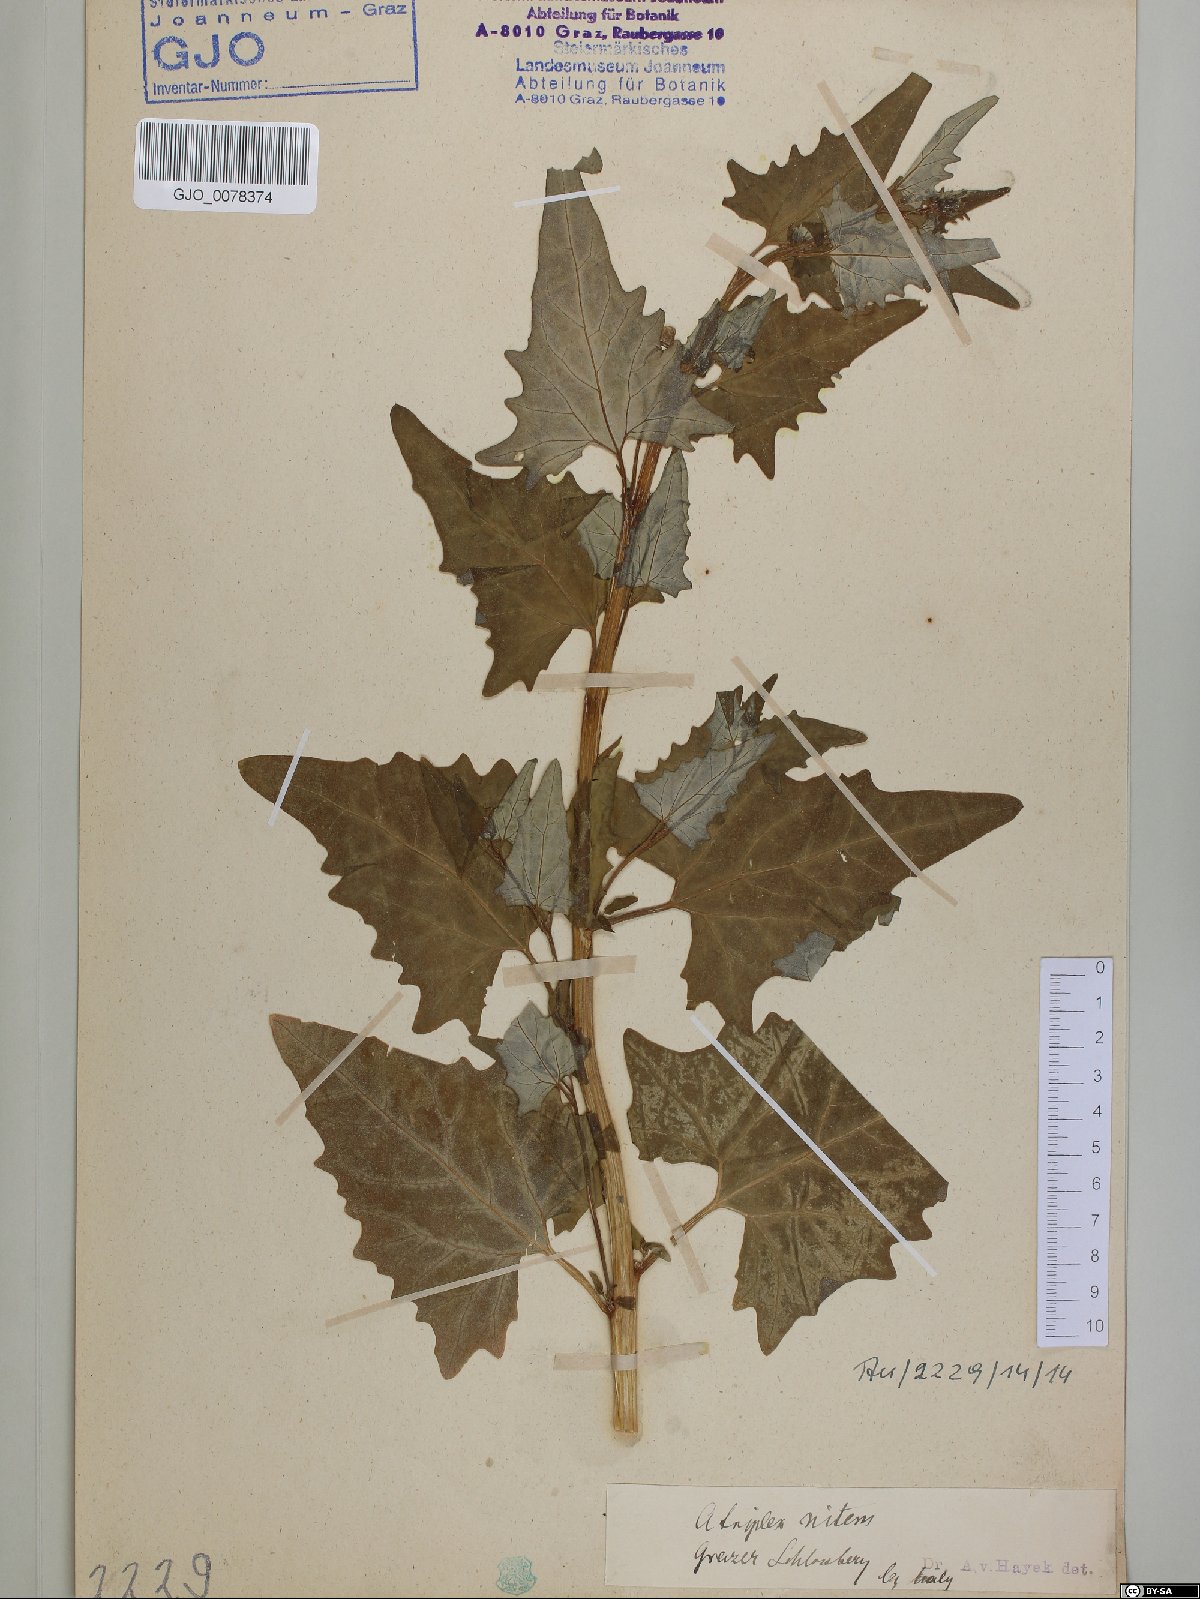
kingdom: Plantae
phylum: Tracheophyta
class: Magnoliopsida
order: Caryophyllales
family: Amaranthaceae
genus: Atriplex
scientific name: Atriplex sagittata
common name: Purple orache
